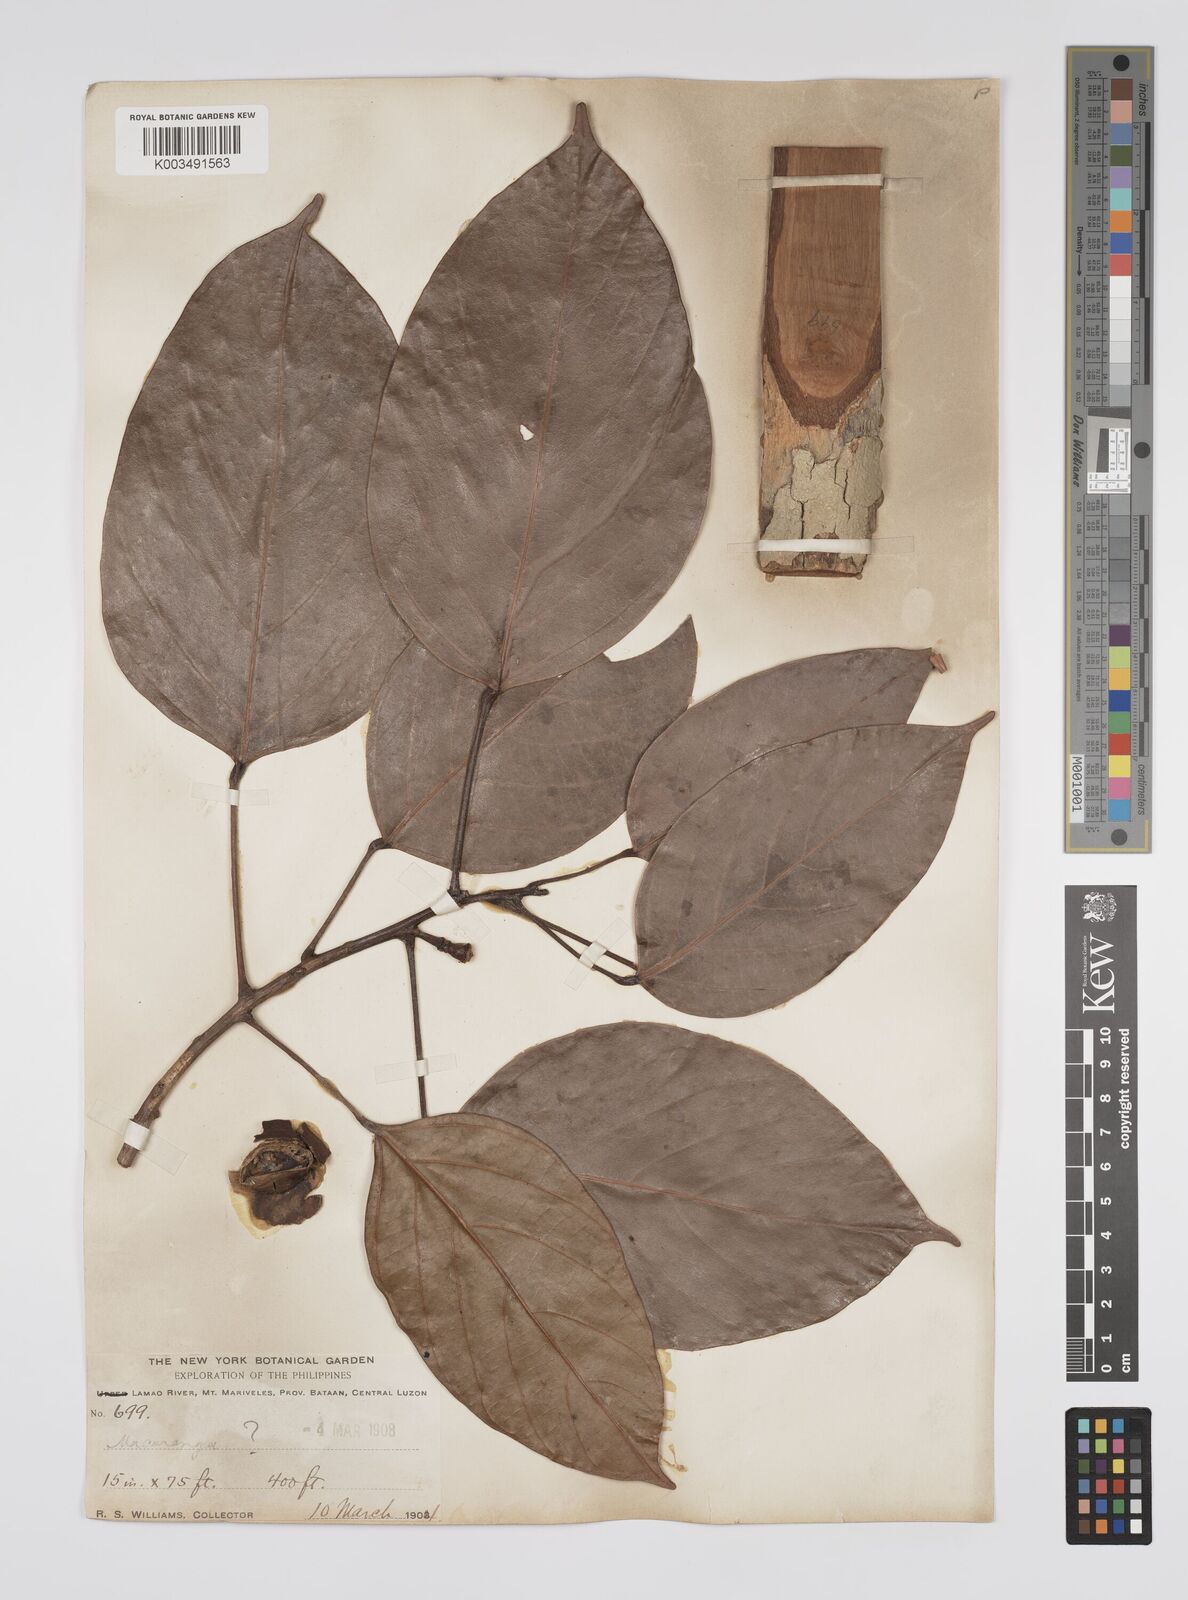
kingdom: Plantae
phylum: Tracheophyta
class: Magnoliopsida
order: Malpighiales
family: Euphorbiaceae
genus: Blumeodendron
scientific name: Blumeodendron philippinense
